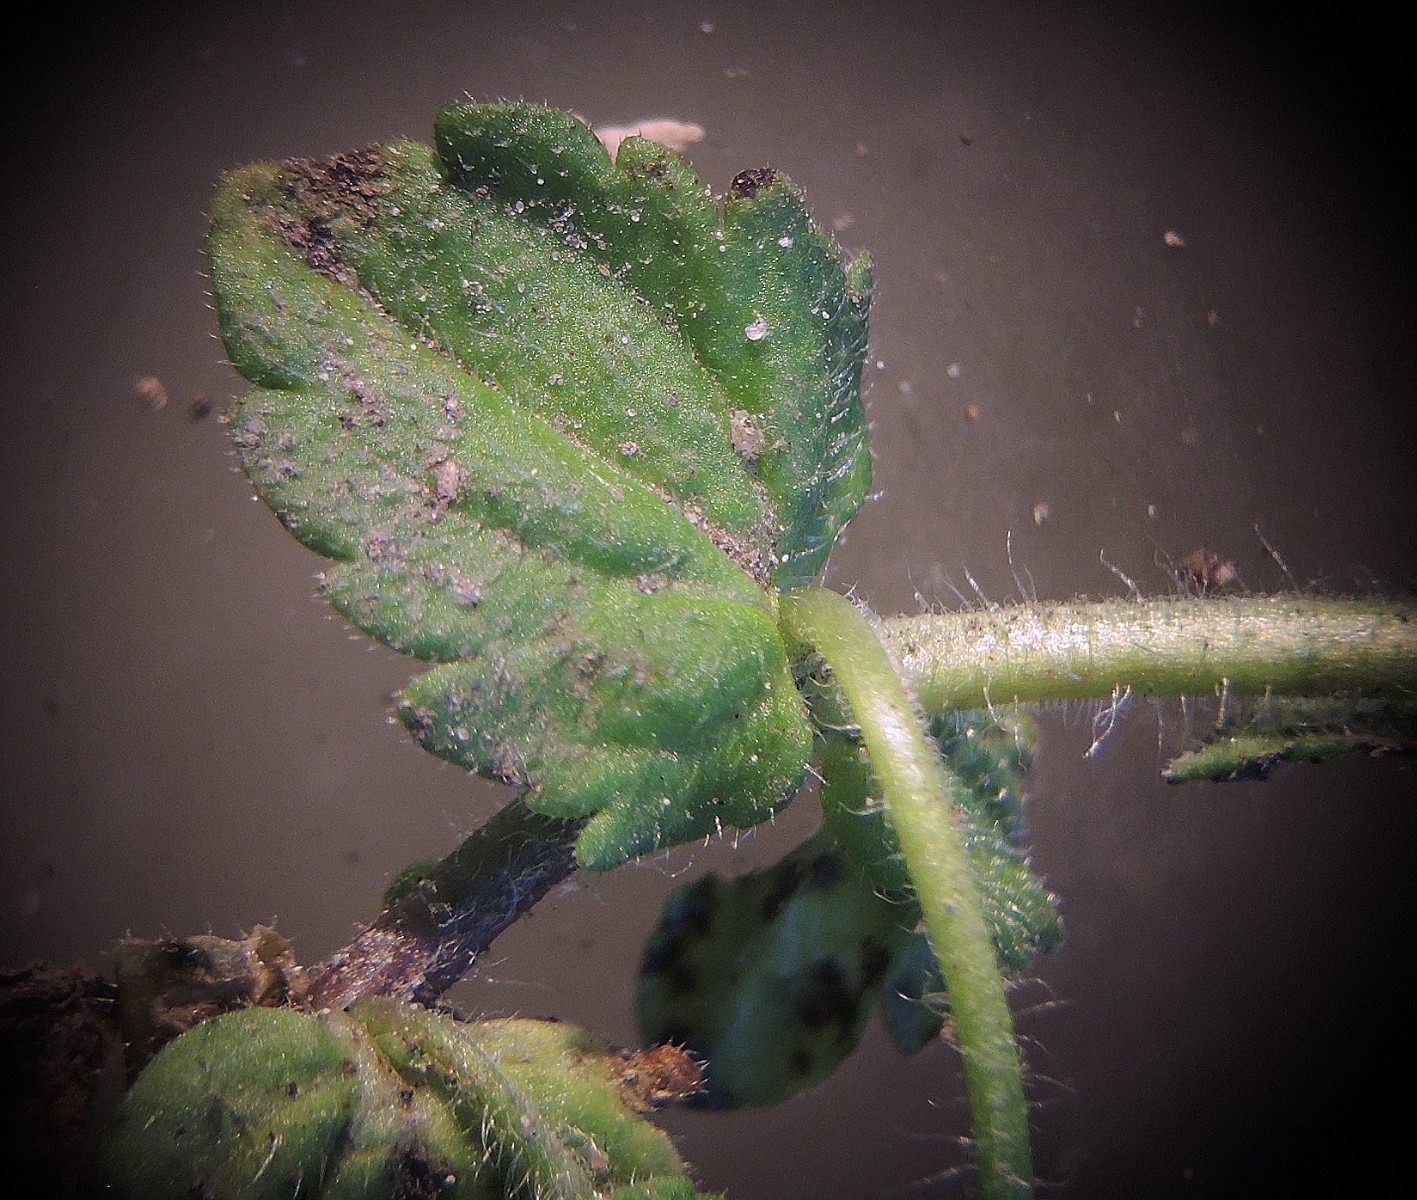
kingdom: Fungi
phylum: Ascomycota
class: Dothideomycetes
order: Asterinales
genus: Discogloeum
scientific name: Discogloeum veronicae
